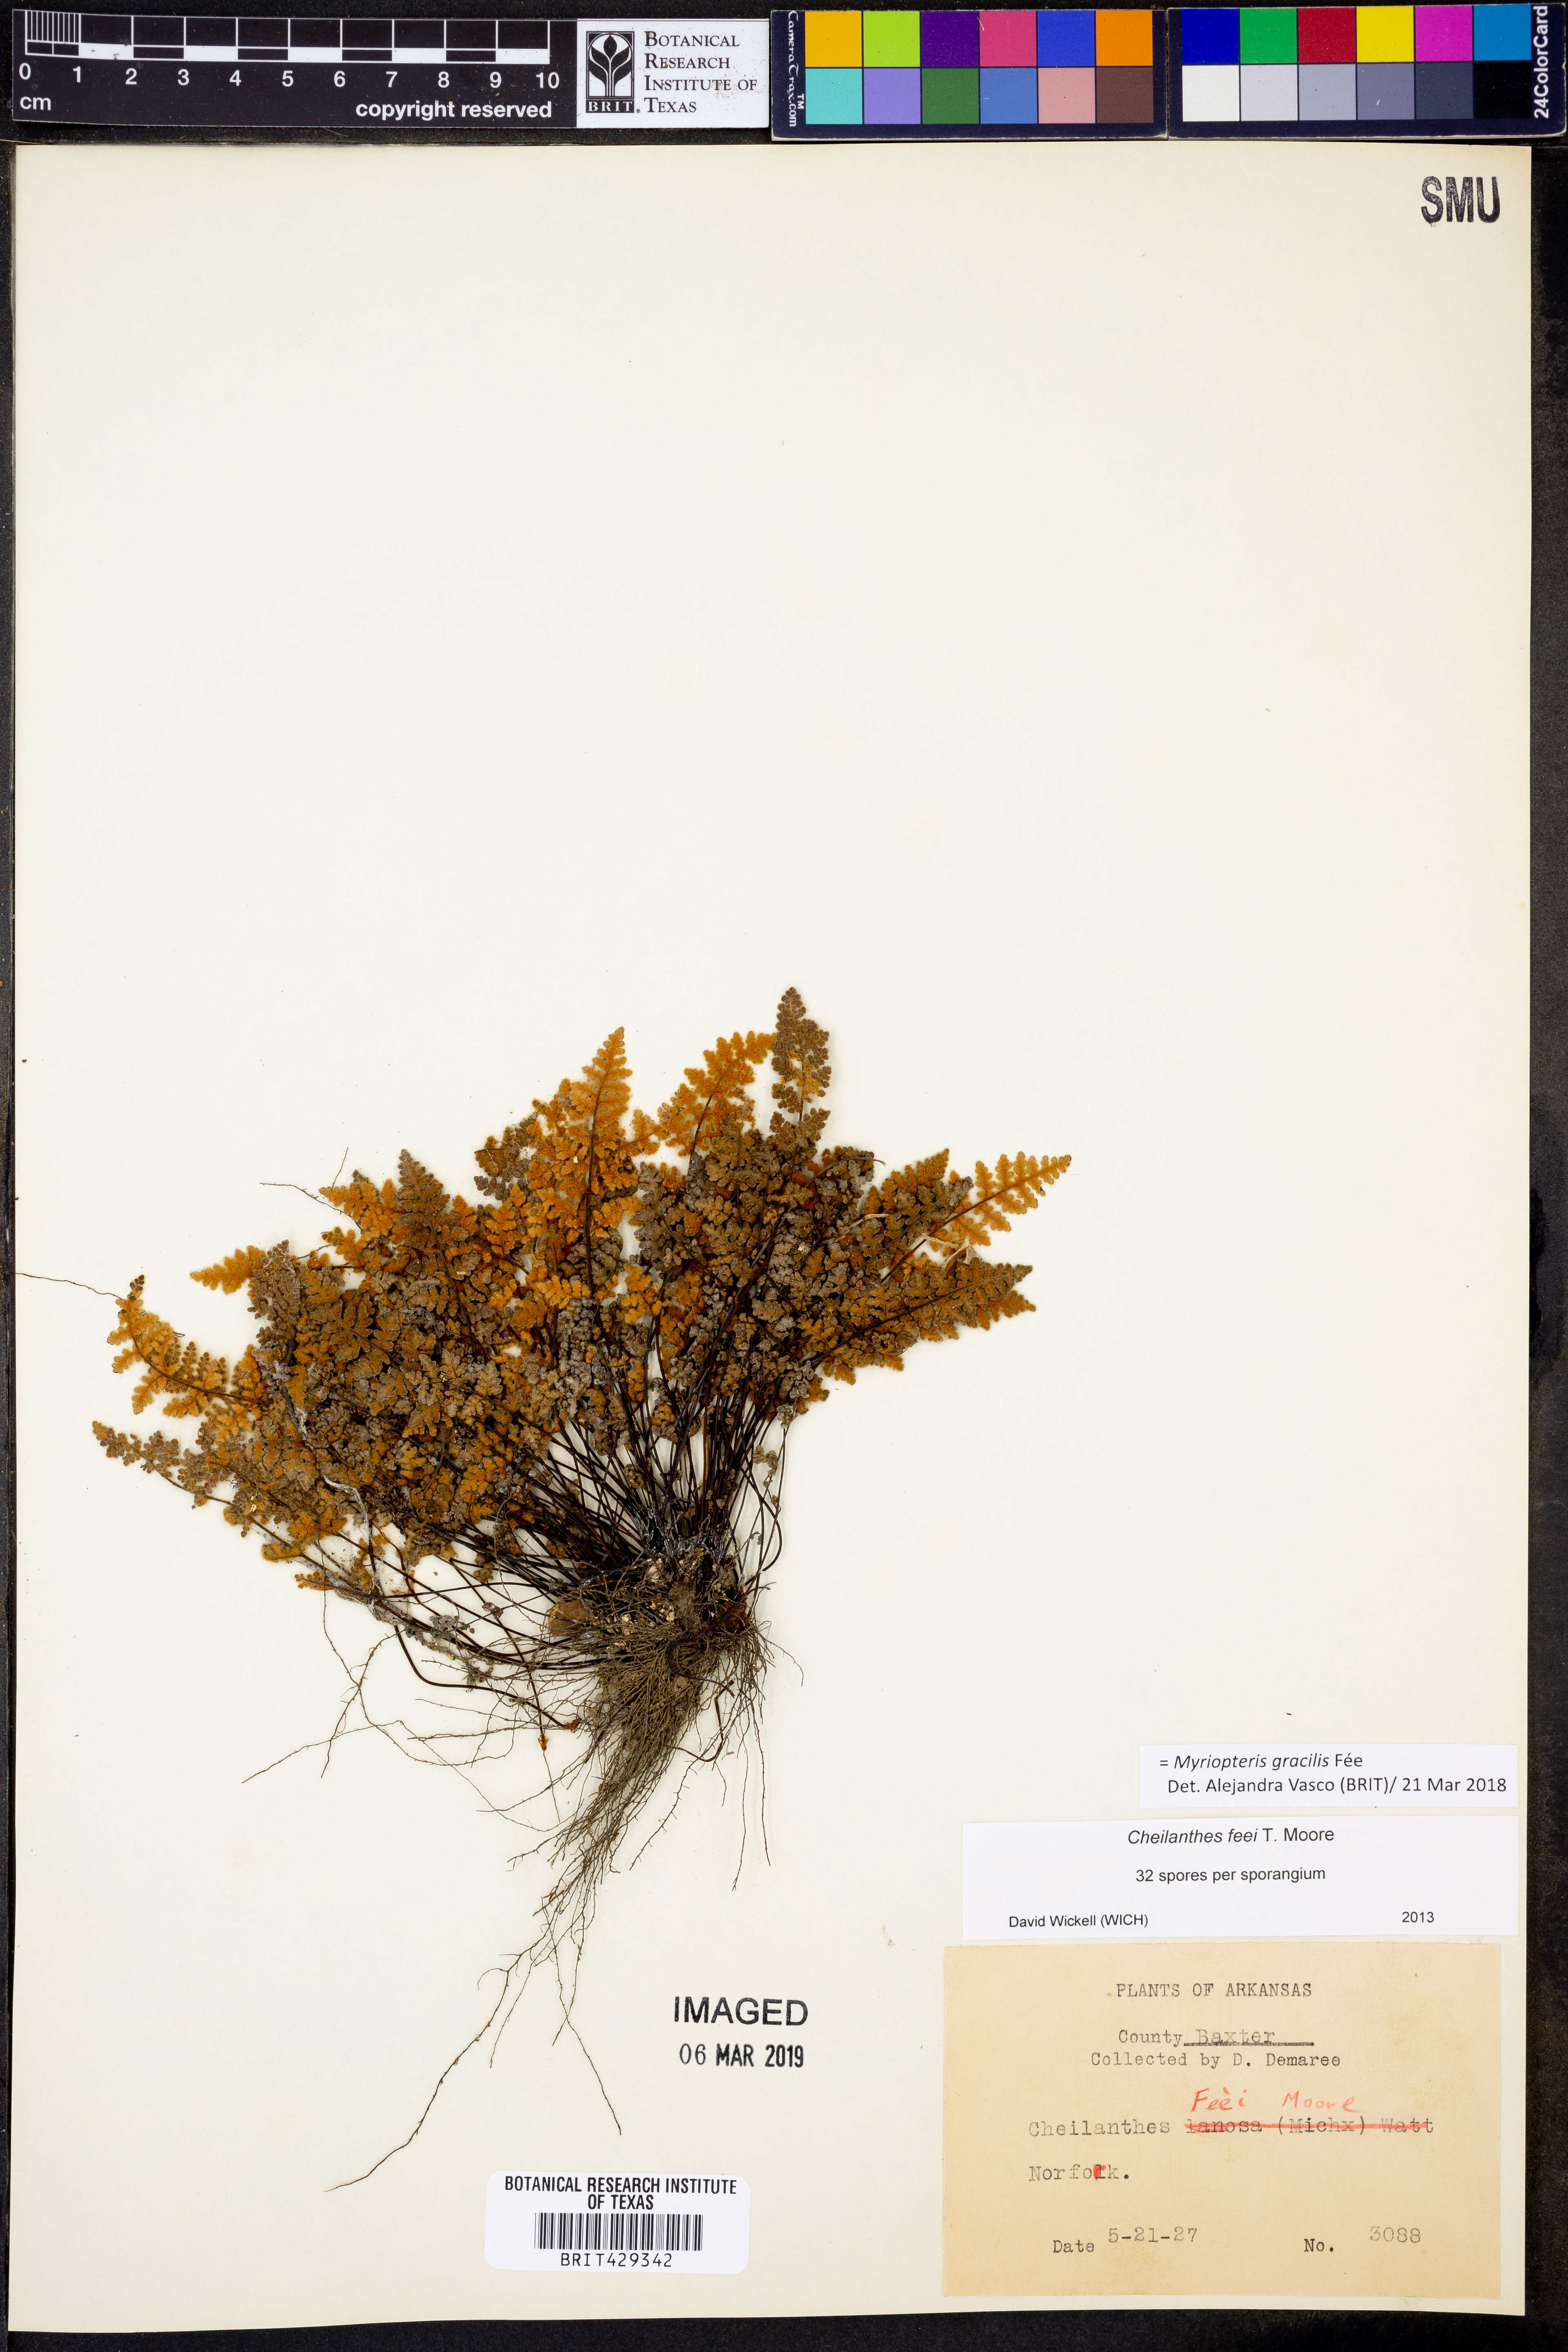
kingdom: Plantae
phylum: Tracheophyta
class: Polypodiopsida
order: Polypodiales
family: Pteridaceae
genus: Myriopteris
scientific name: Myriopteris gracilis
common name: Fee's lip fern
